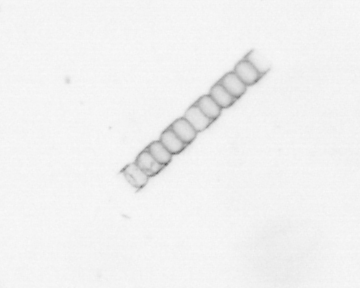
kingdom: Chromista
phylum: Ochrophyta
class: Bacillariophyceae
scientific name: Bacillariophyceae
